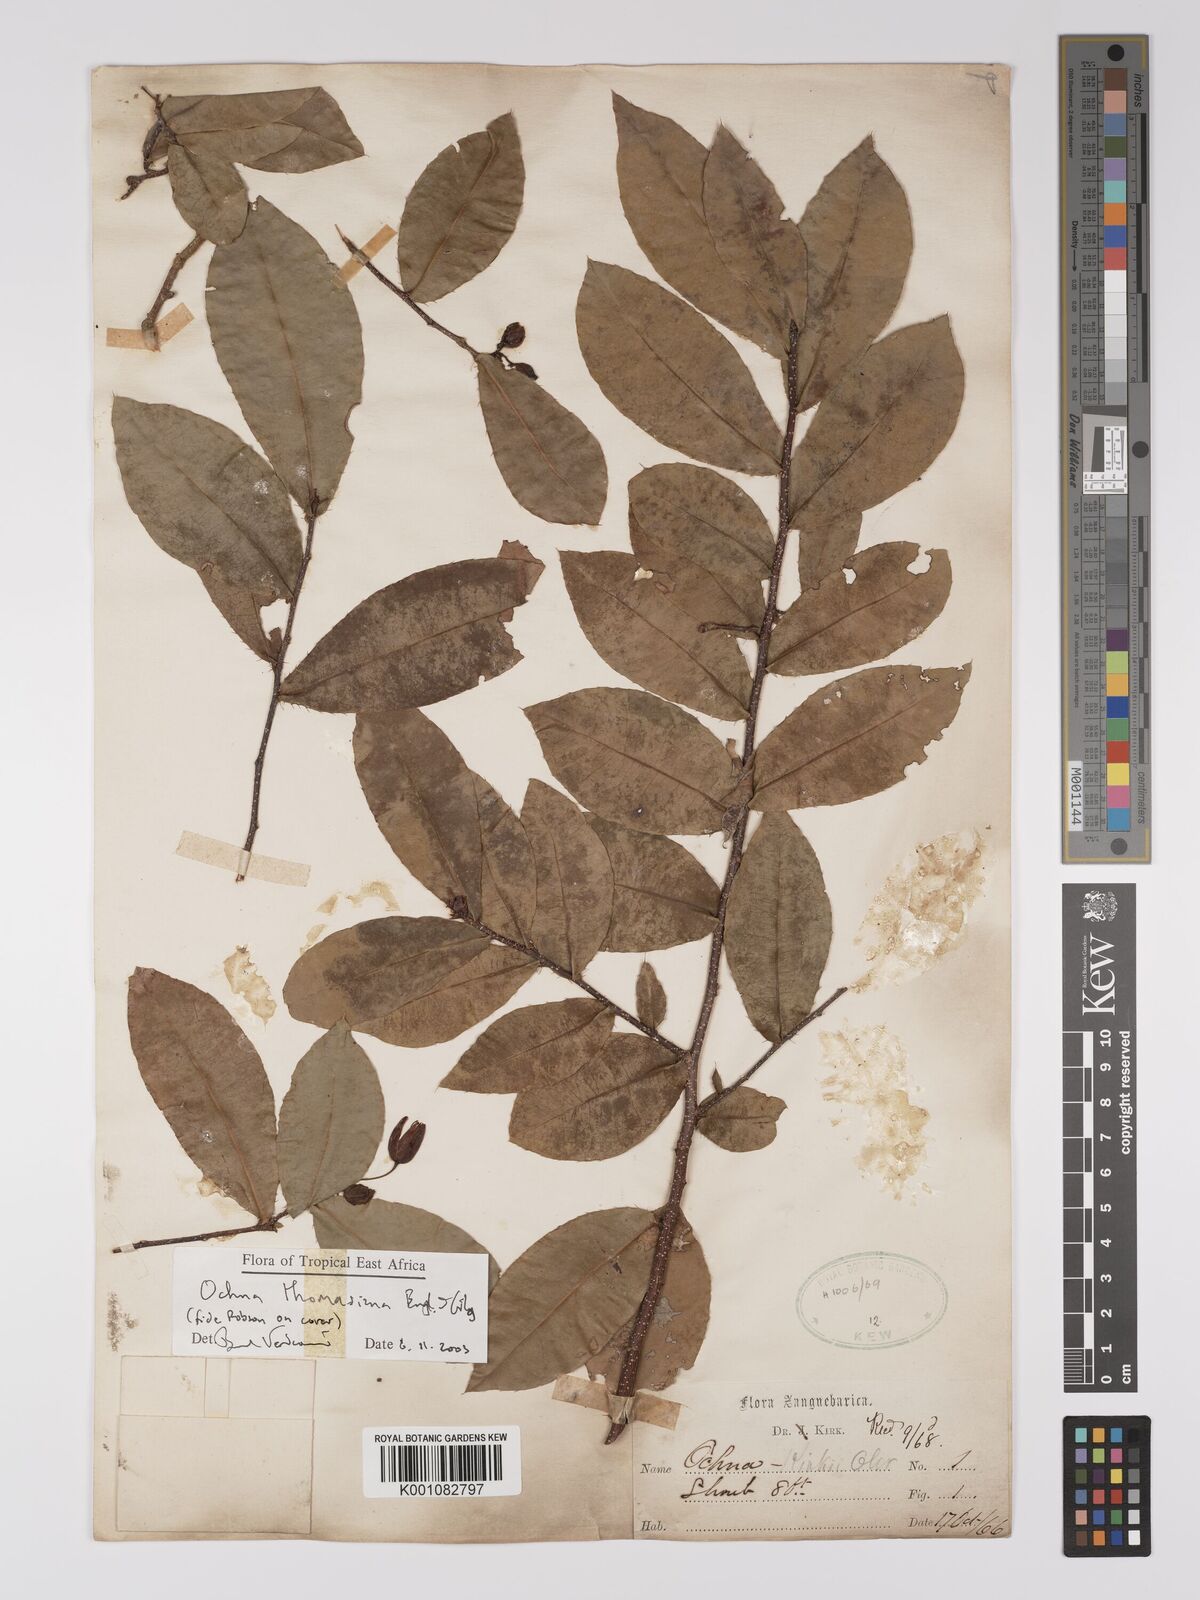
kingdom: Plantae
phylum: Tracheophyta
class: Magnoliopsida
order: Malpighiales
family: Ochnaceae
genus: Ochna
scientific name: Ochna thomasiana
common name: Thomas' bird's-eye bush
